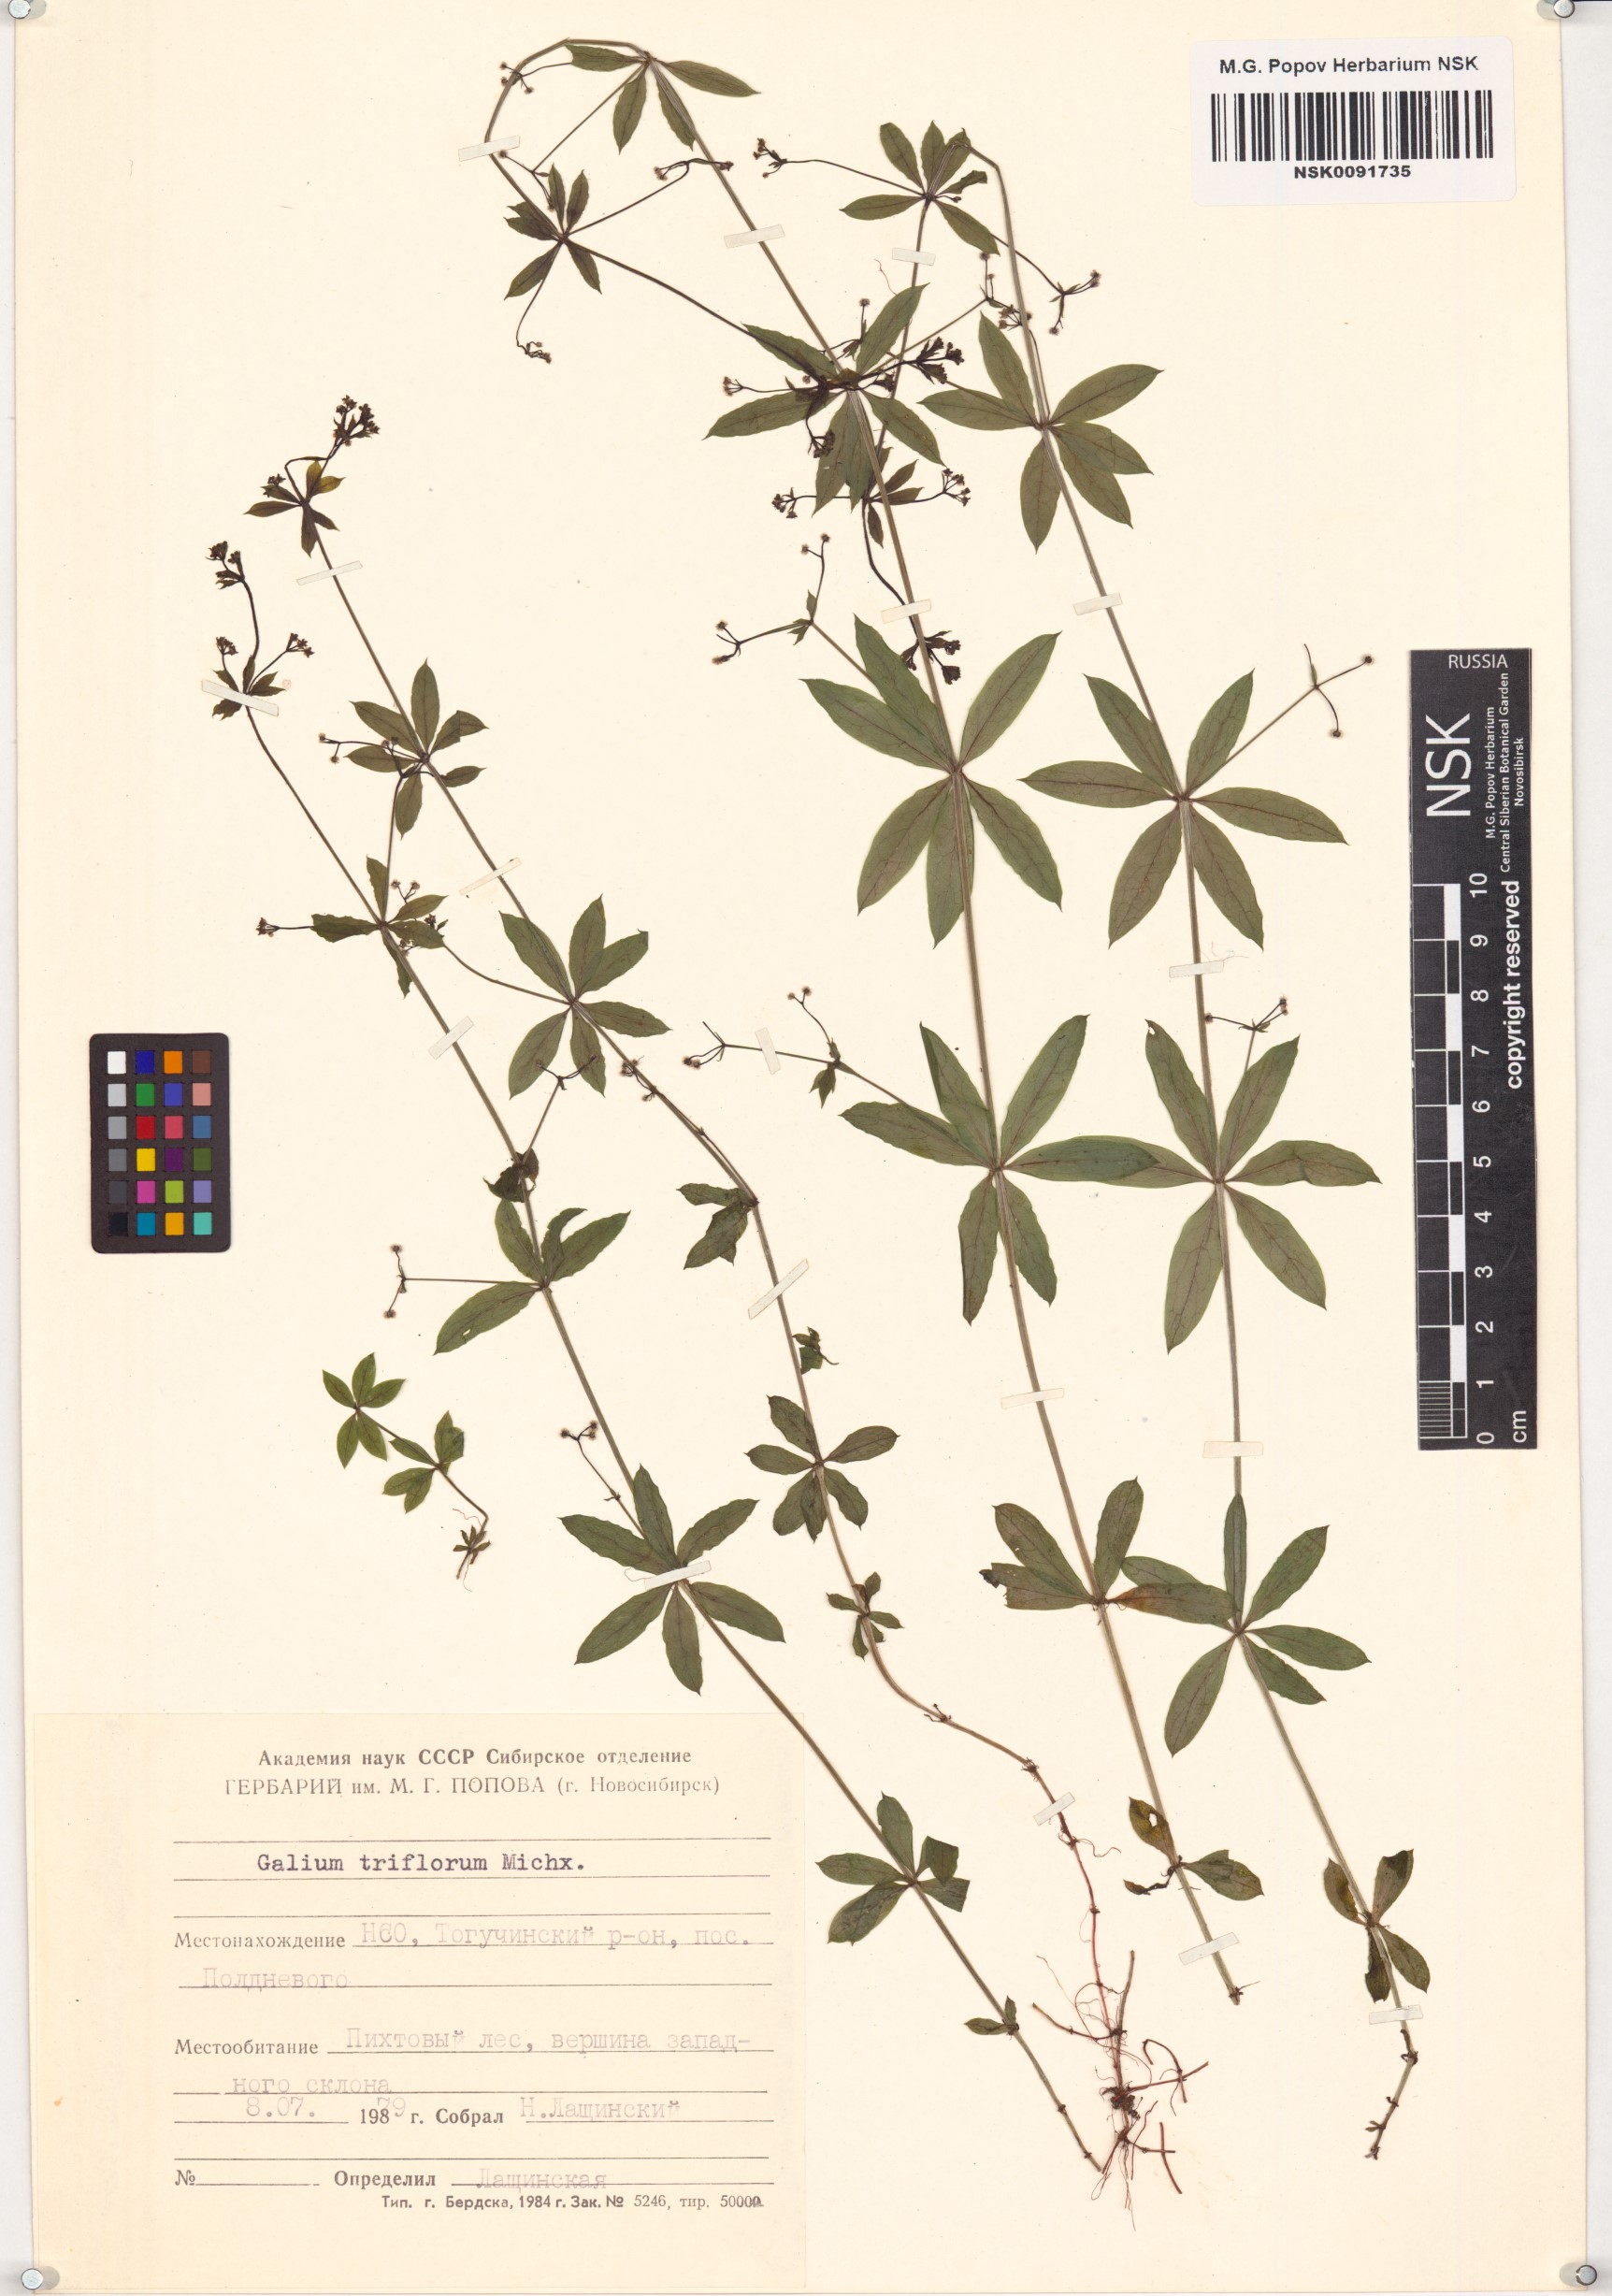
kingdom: Plantae
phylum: Tracheophyta
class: Magnoliopsida
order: Gentianales
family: Rubiaceae
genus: Galium
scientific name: Galium triflorum
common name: Fragrant bedstraw
